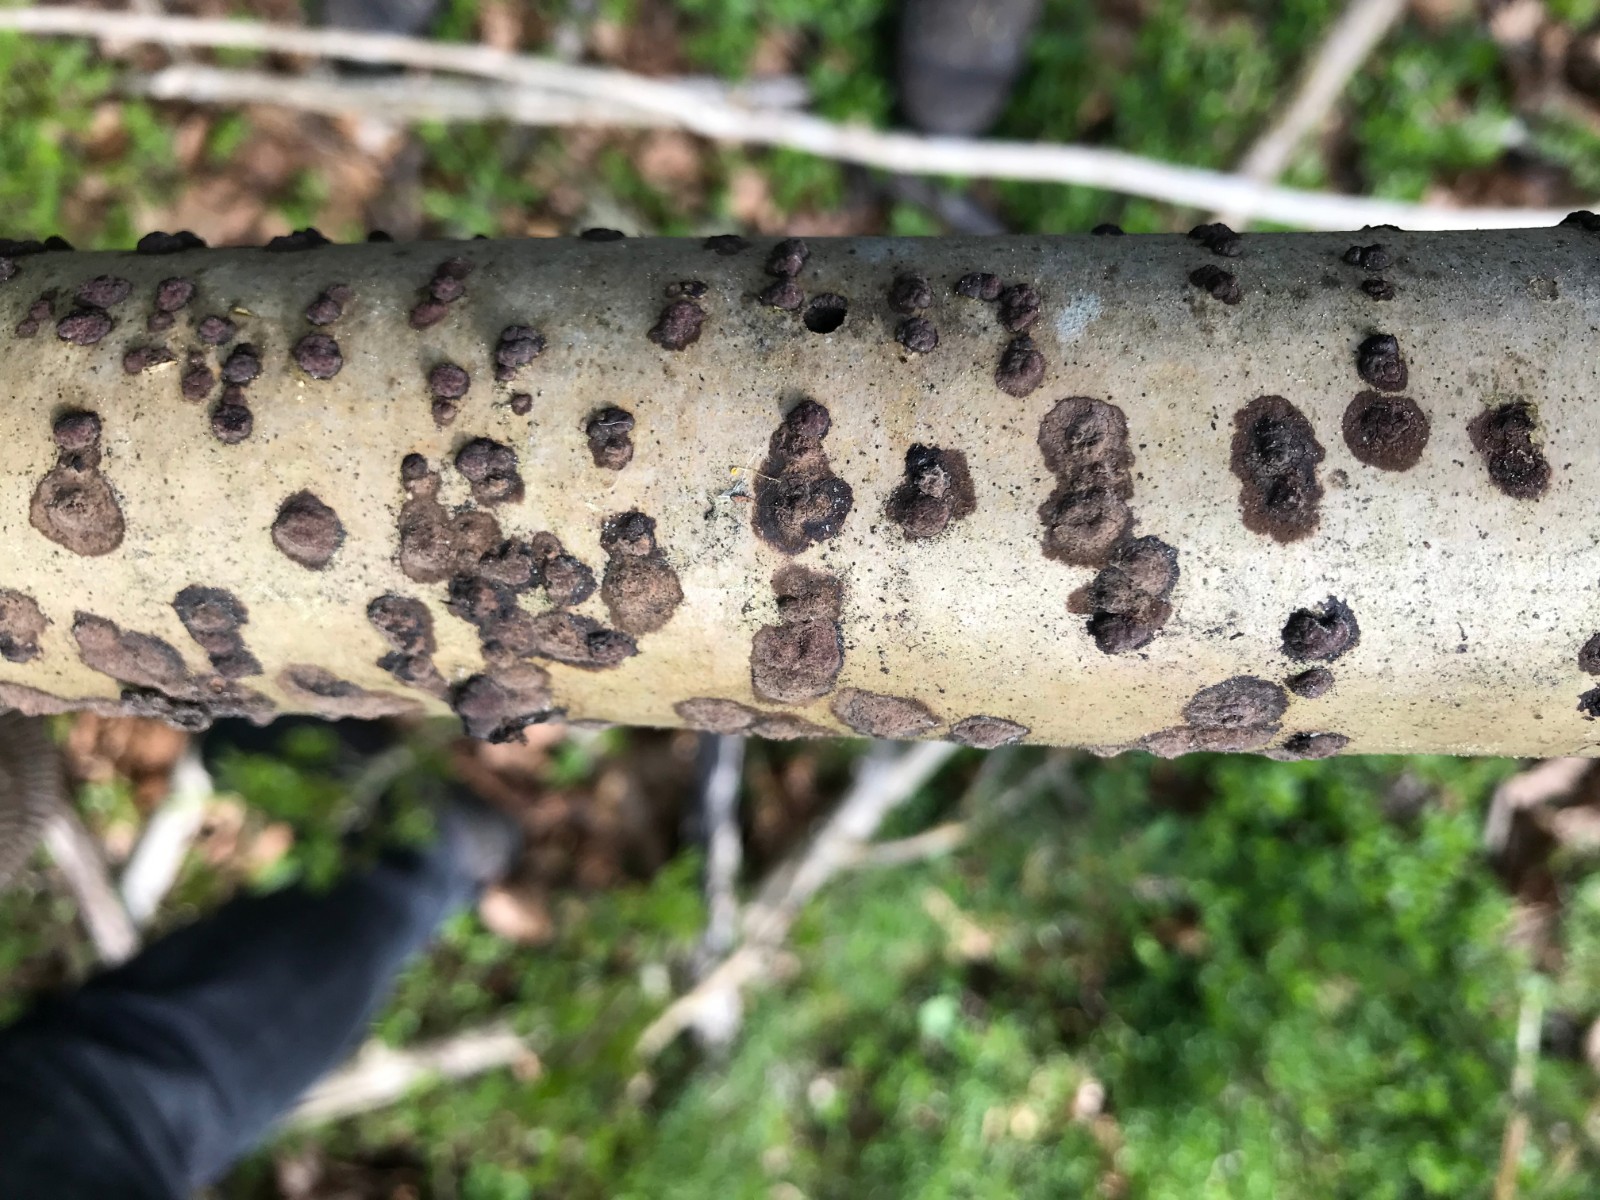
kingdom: Fungi
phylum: Ascomycota
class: Sordariomycetes
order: Xylariales
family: Hypoxylaceae
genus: Hypoxylon
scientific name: Hypoxylon fuscum
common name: kegleformet kulbær
